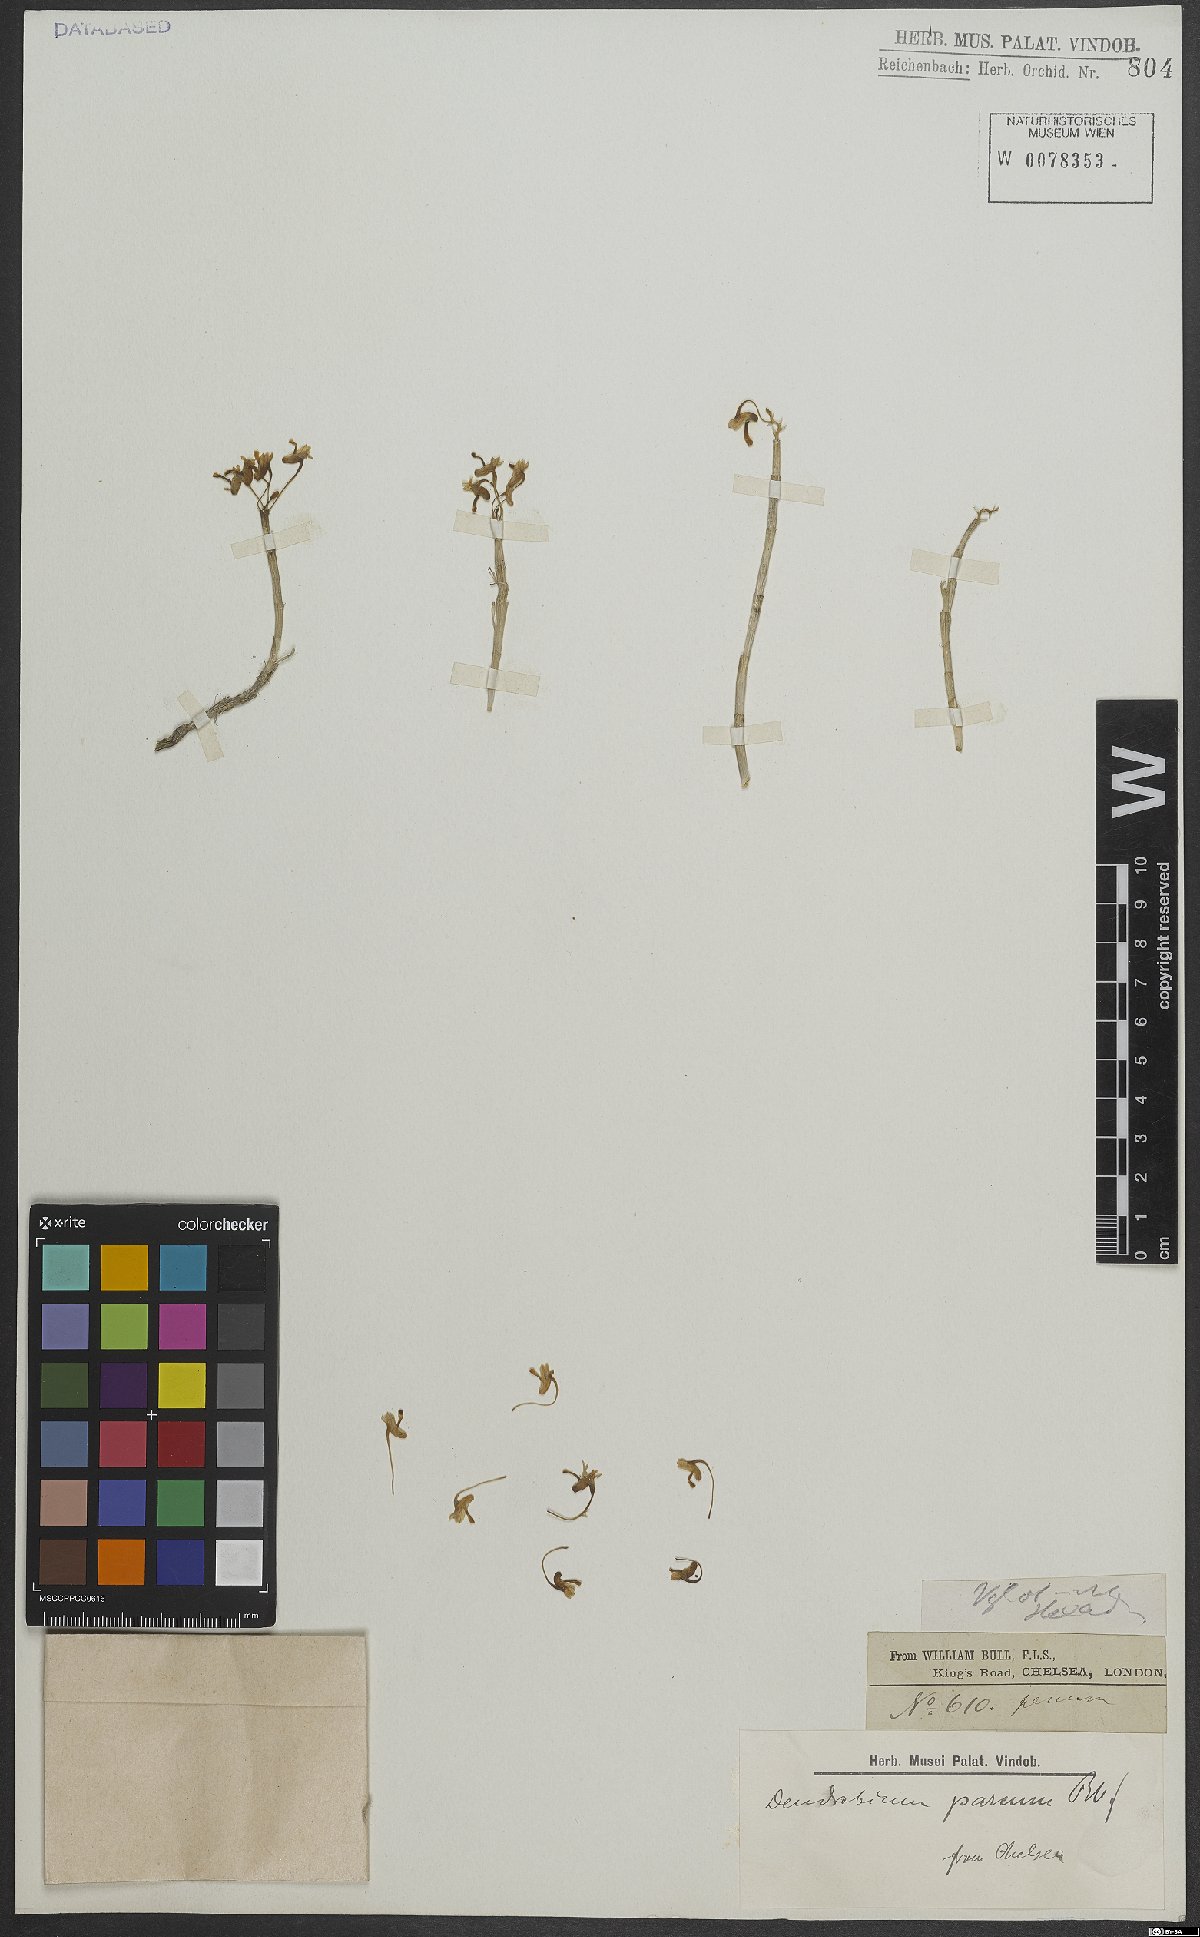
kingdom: Plantae
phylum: Tracheophyta
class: Liliopsida
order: Asparagales
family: Orchidaceae
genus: Dendrobium
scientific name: Dendrobium parcum
